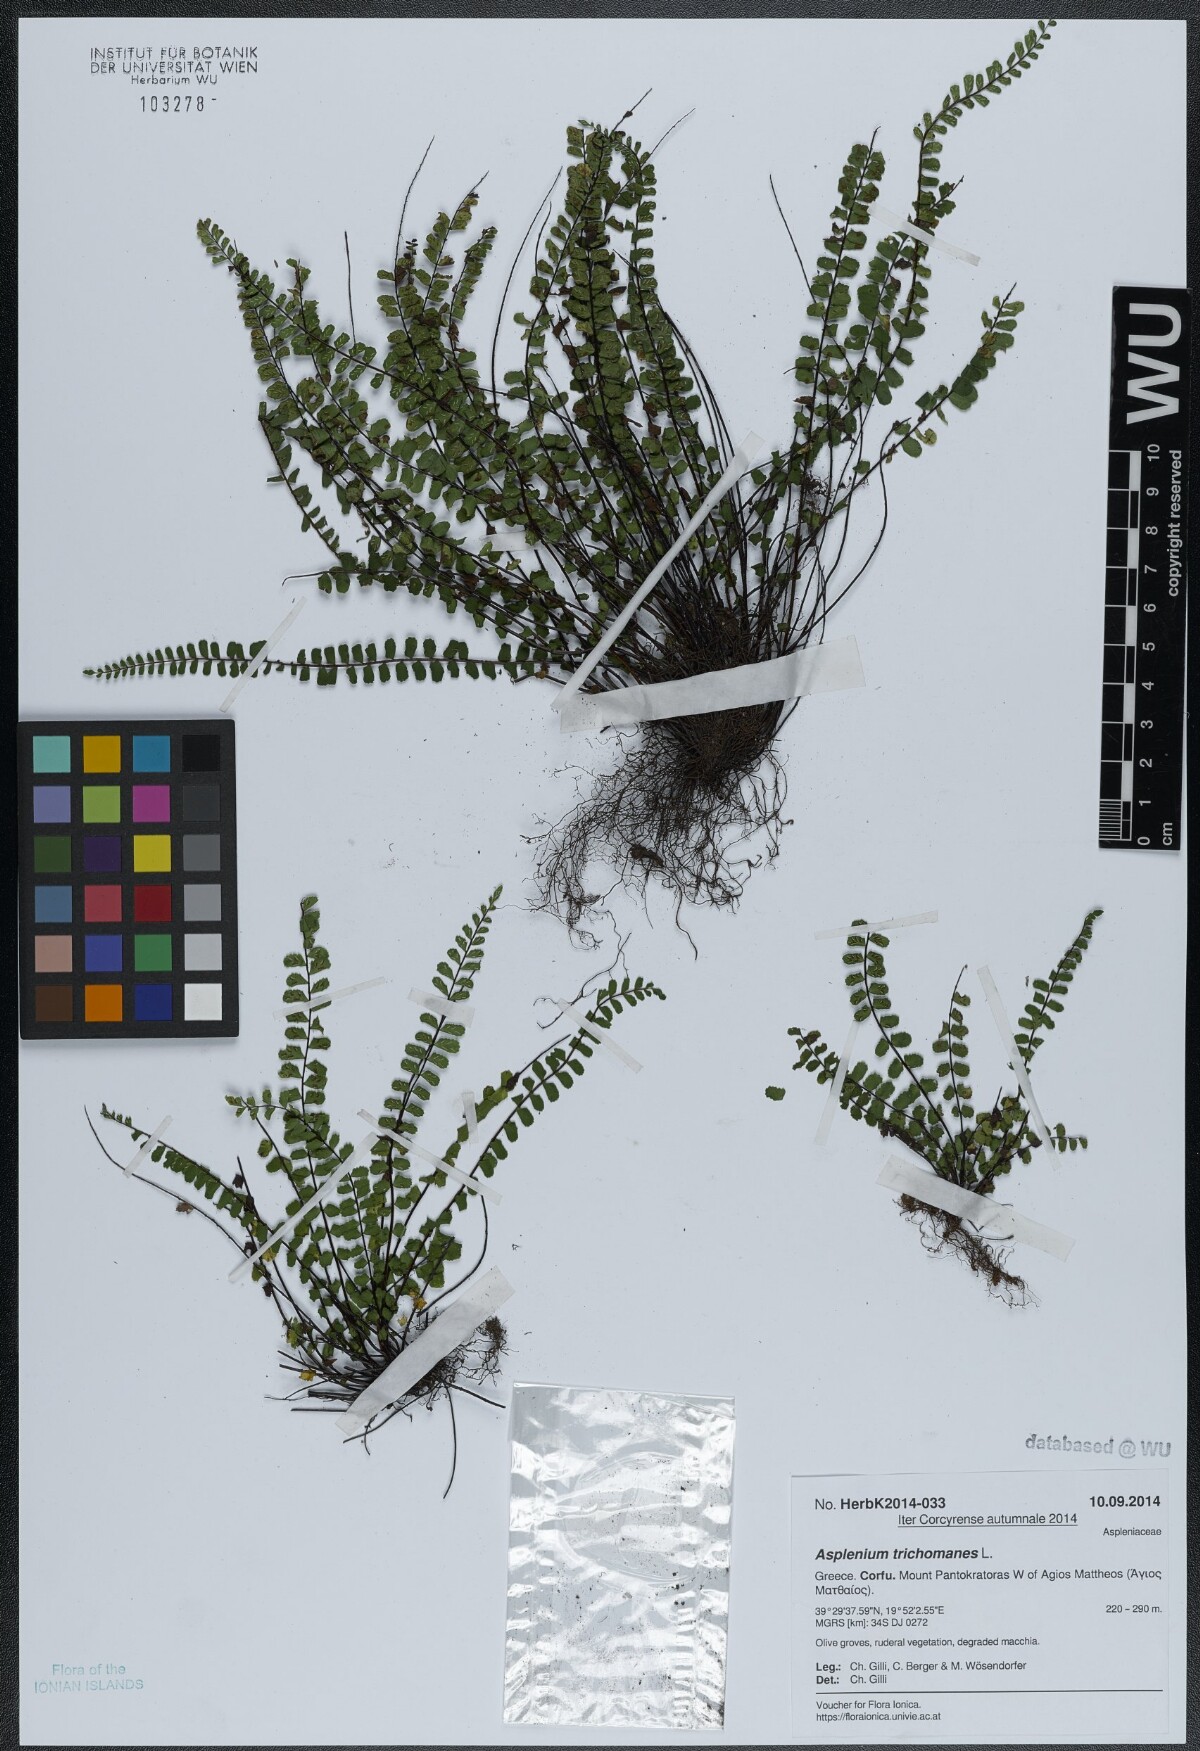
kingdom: Plantae
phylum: Tracheophyta
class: Polypodiopsida
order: Polypodiales
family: Aspleniaceae
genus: Asplenium
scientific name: Asplenium quadrivalens
